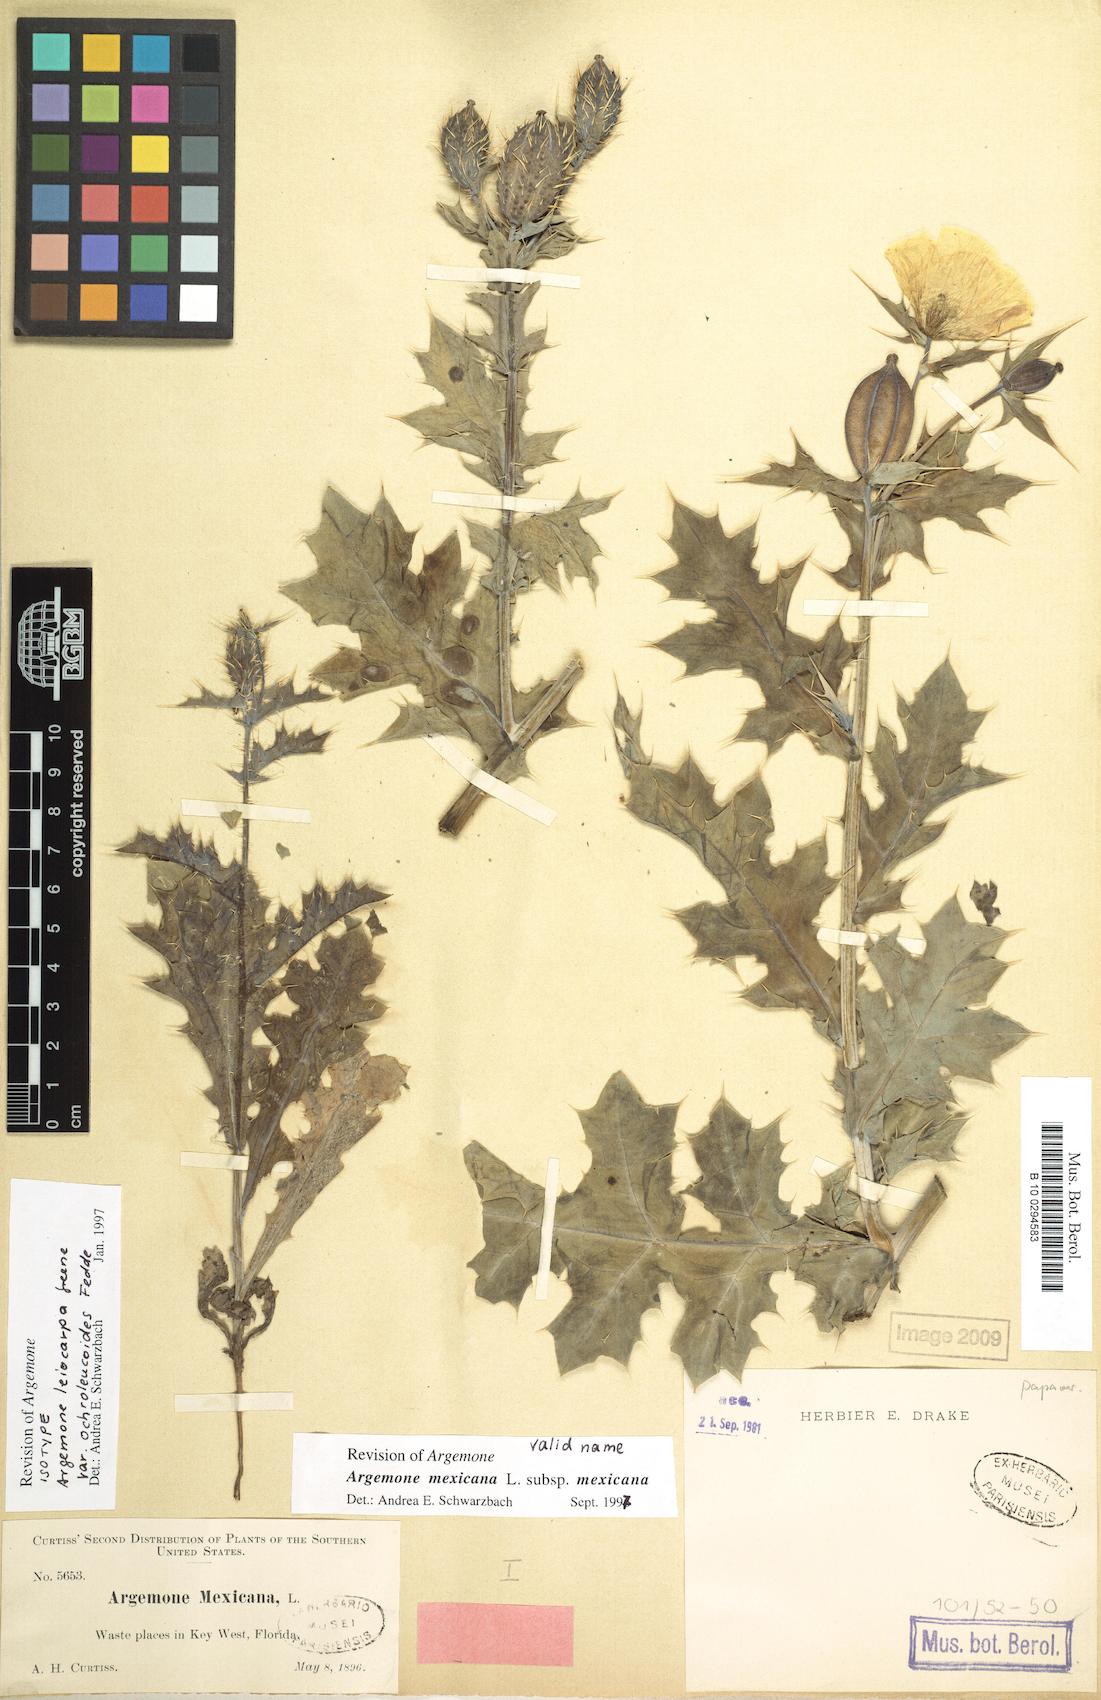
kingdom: Plantae
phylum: Tracheophyta
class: Magnoliopsida
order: Ranunculales
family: Papaveraceae
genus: Argemone
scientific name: Argemone mexicana
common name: Mexican poppy
